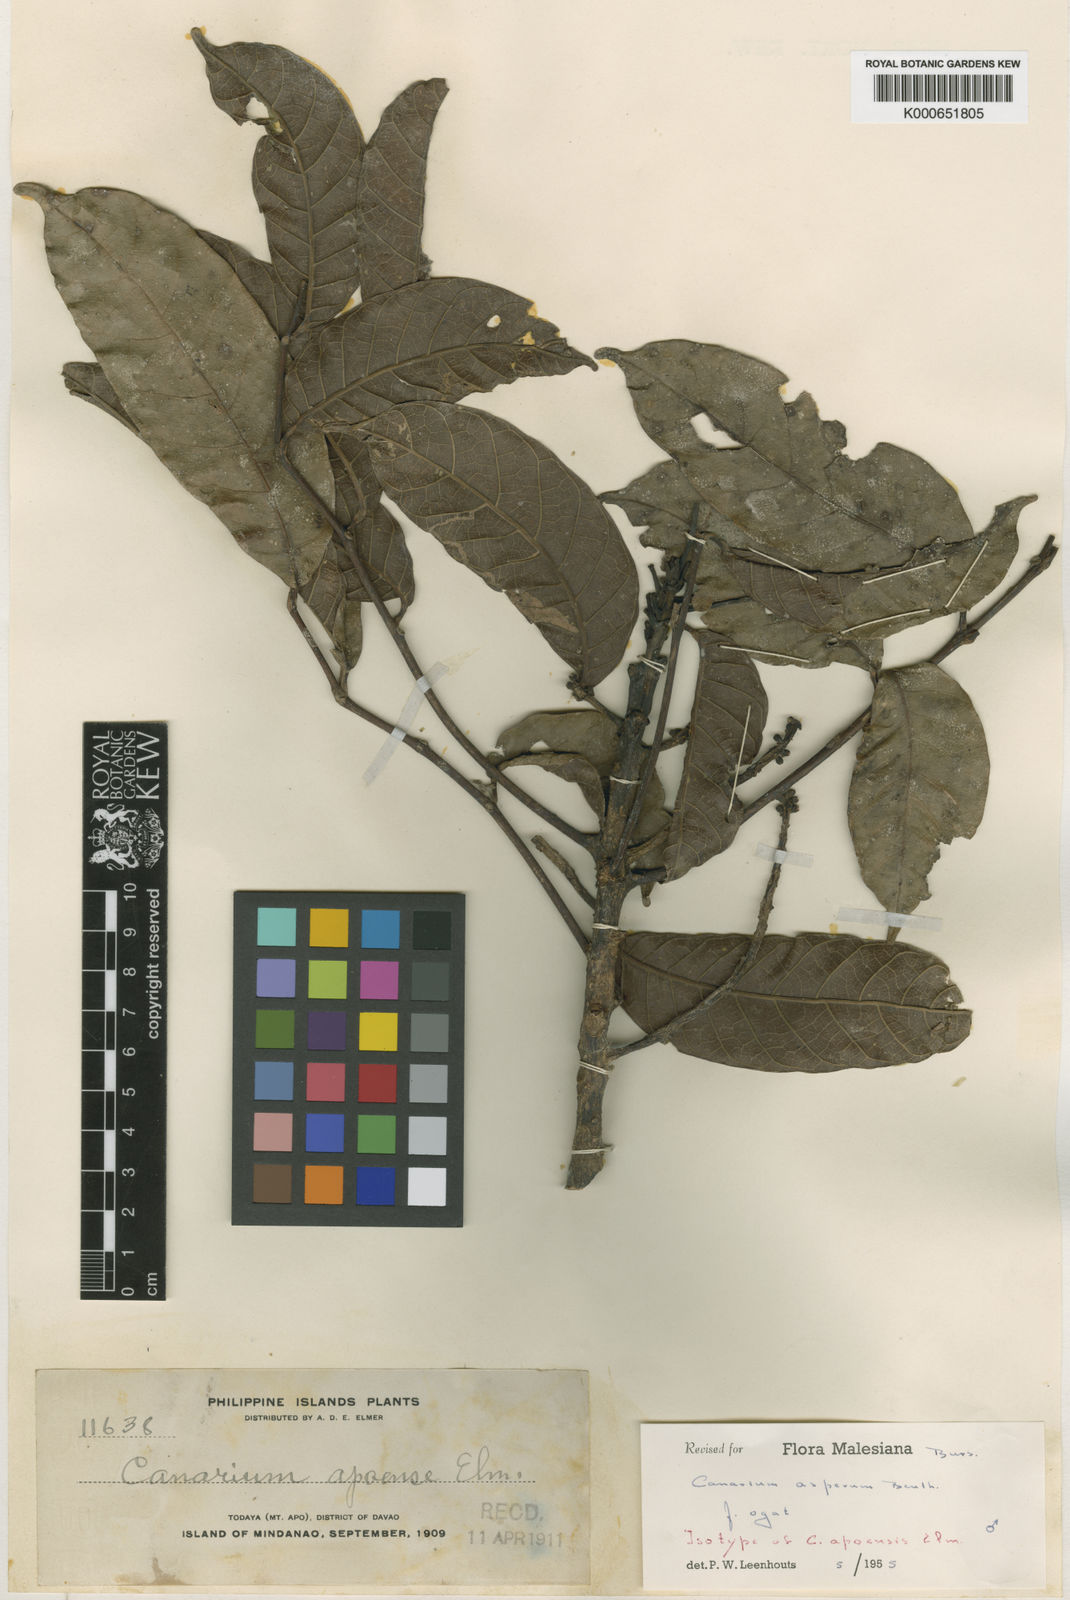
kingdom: Plantae
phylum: Tracheophyta
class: Magnoliopsida
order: Sapindales
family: Burseraceae
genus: Canarium
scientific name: Canarium asperum
